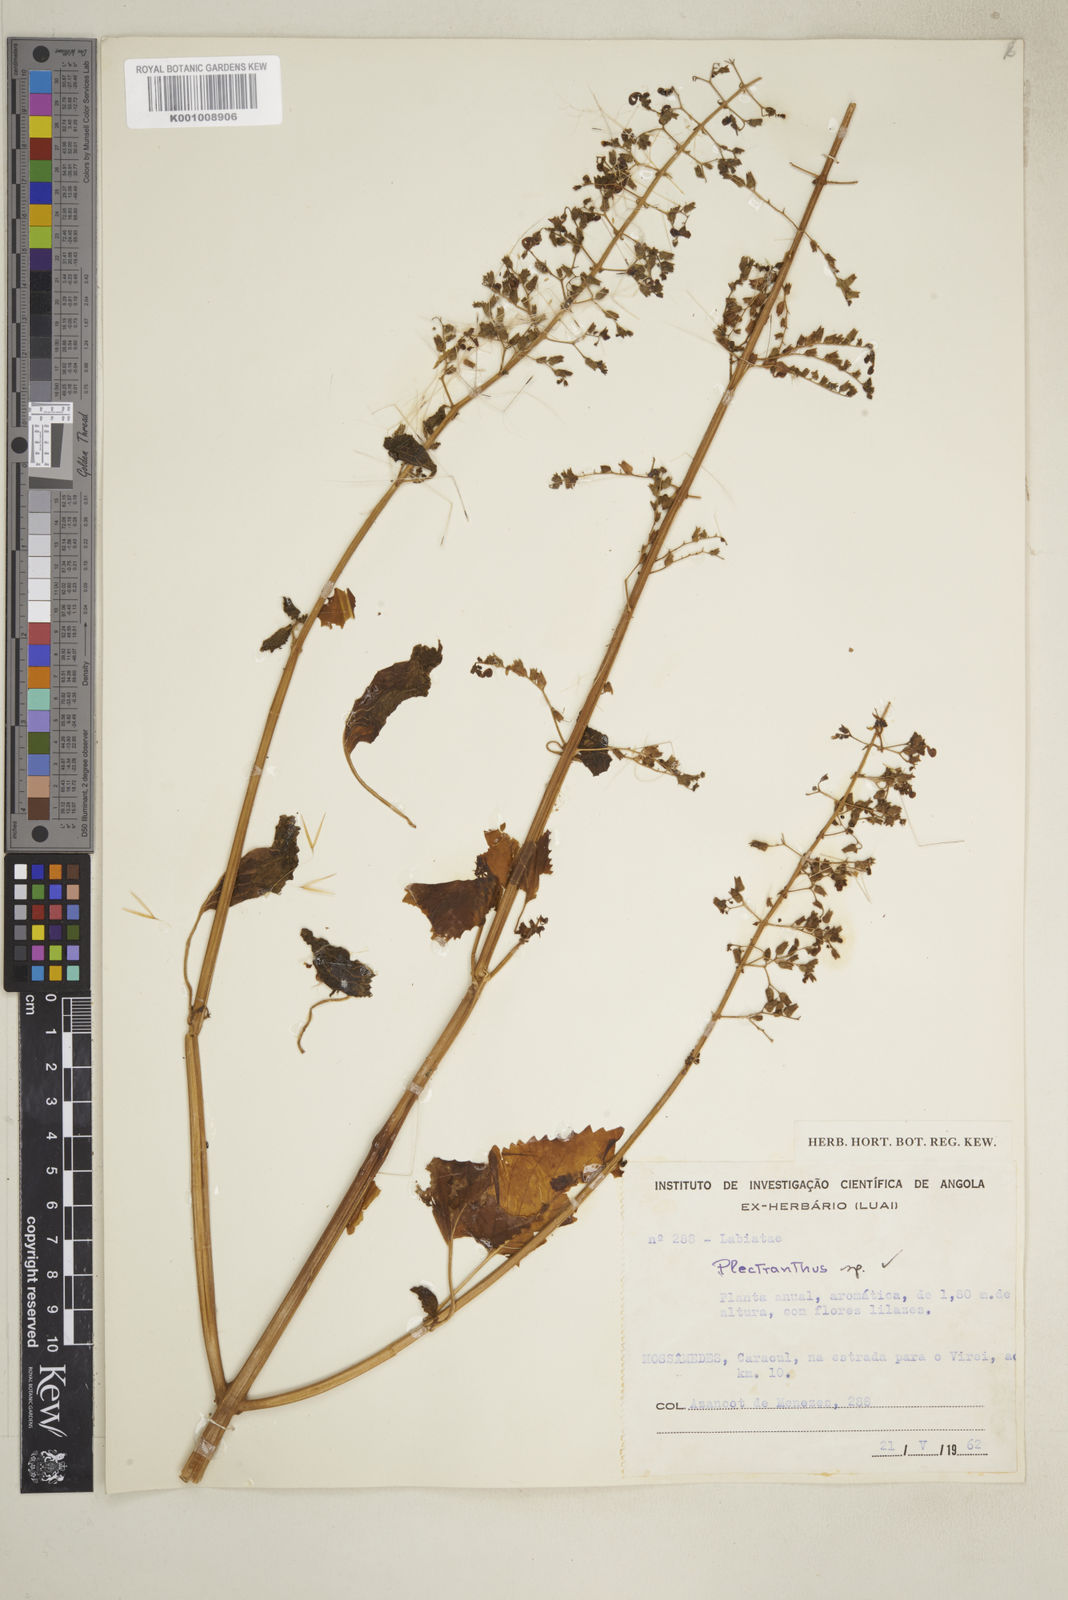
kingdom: Plantae
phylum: Tracheophyta
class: Magnoliopsida
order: Lamiales
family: Lamiaceae
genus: Coleus
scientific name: Coleus hereroensis
